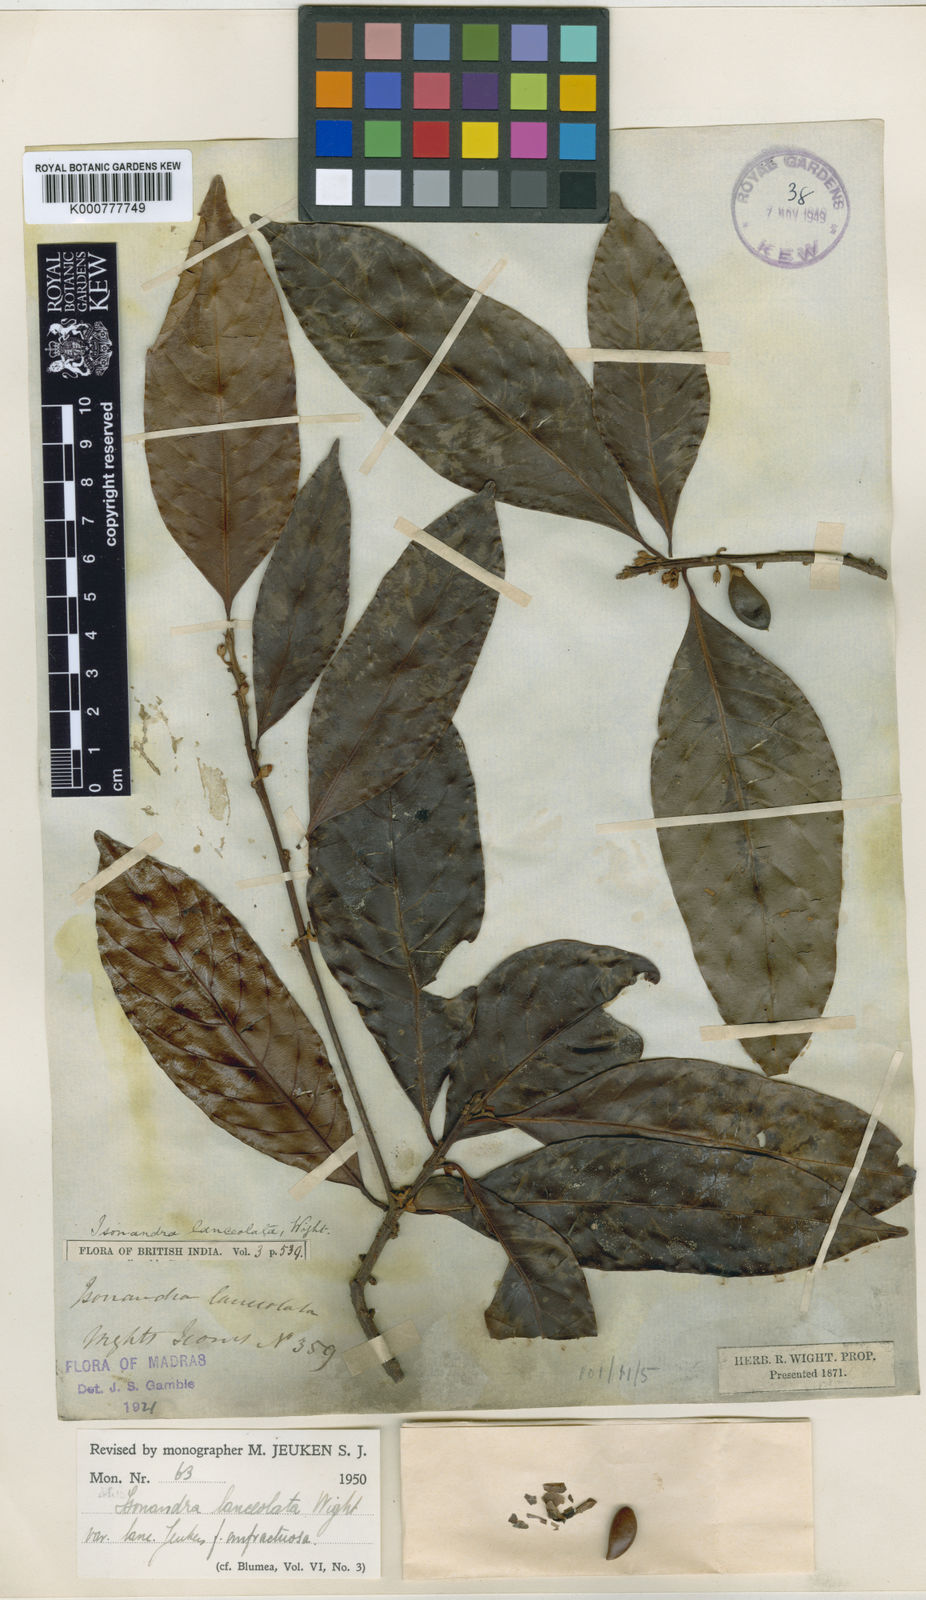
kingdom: Plantae
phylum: Tracheophyta
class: Magnoliopsida
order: Ericales
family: Sapotaceae
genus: Isonandra
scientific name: Isonandra lanceolata
